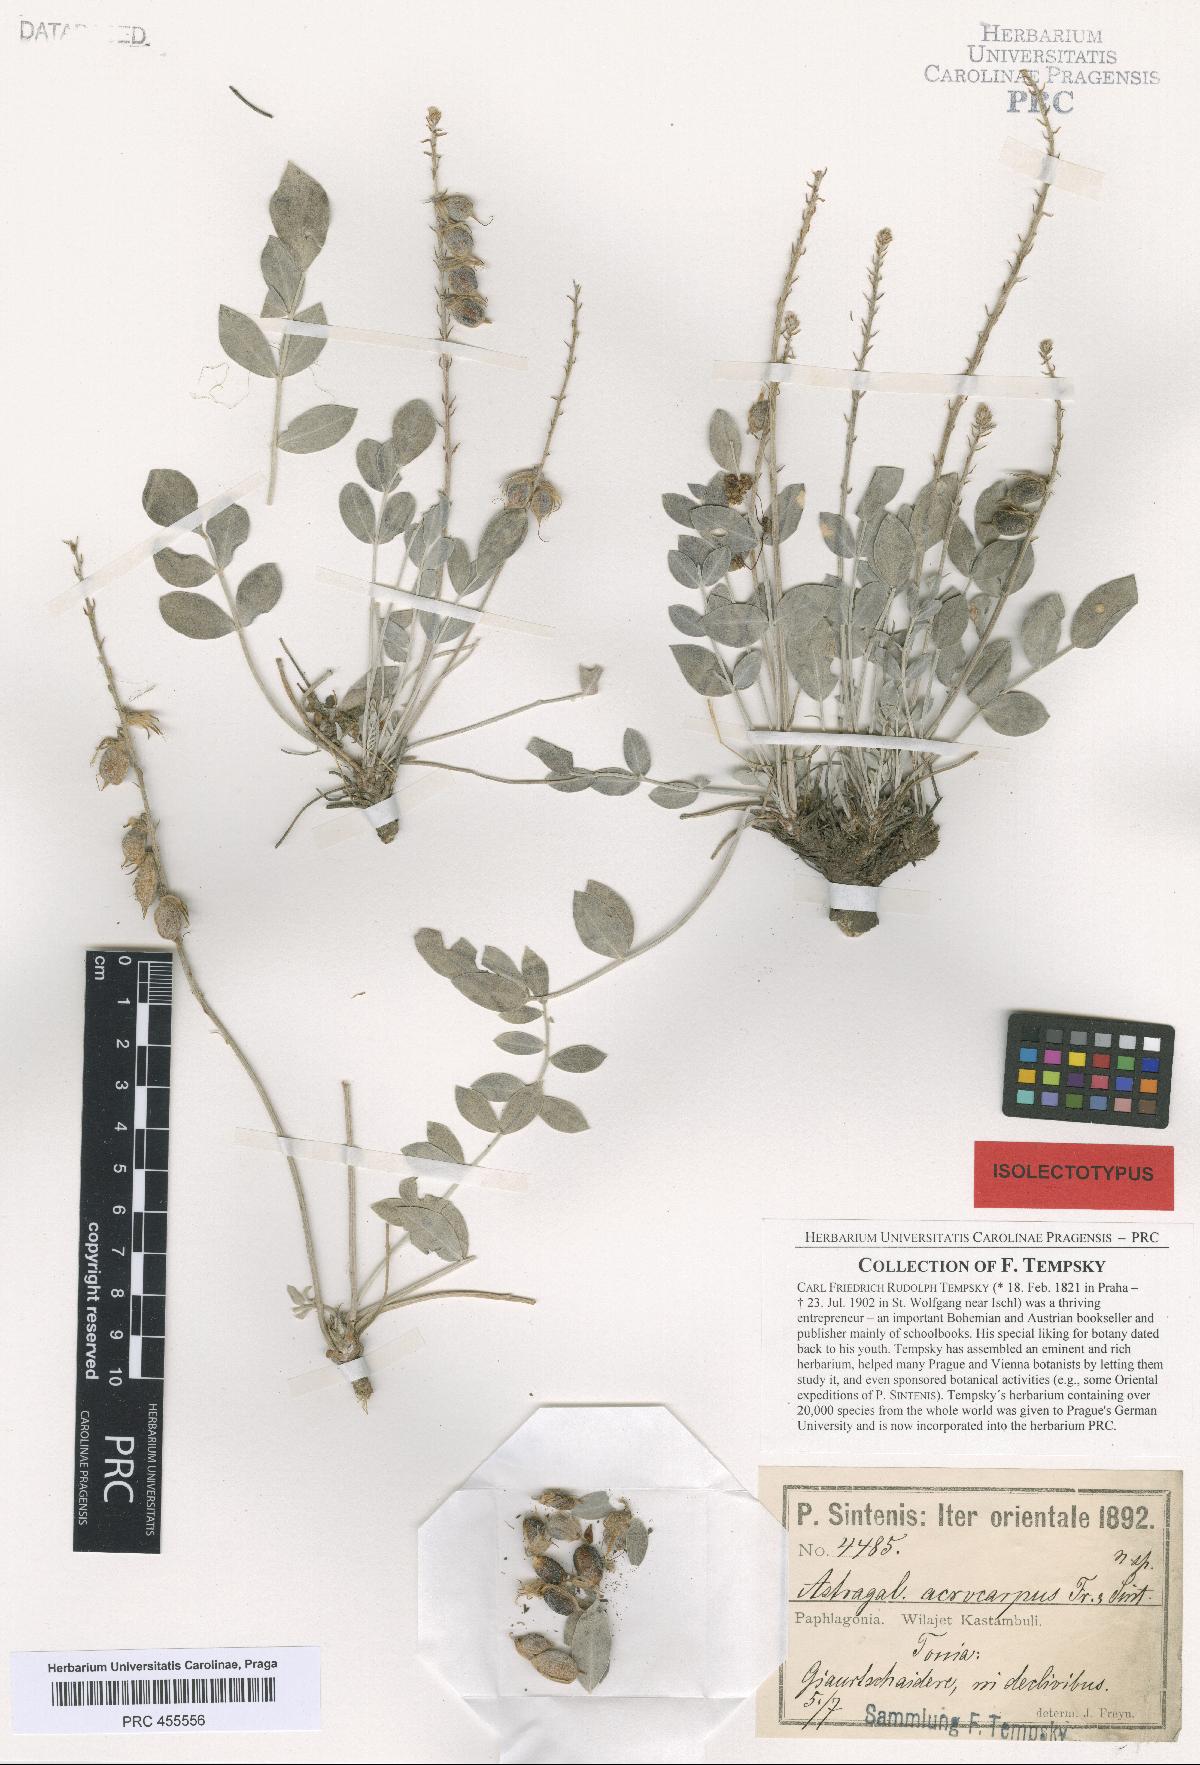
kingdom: Plantae
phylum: Tracheophyta
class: Magnoliopsida
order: Fabales
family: Fabaceae
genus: Astragalus
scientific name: Astragalus elongatus
